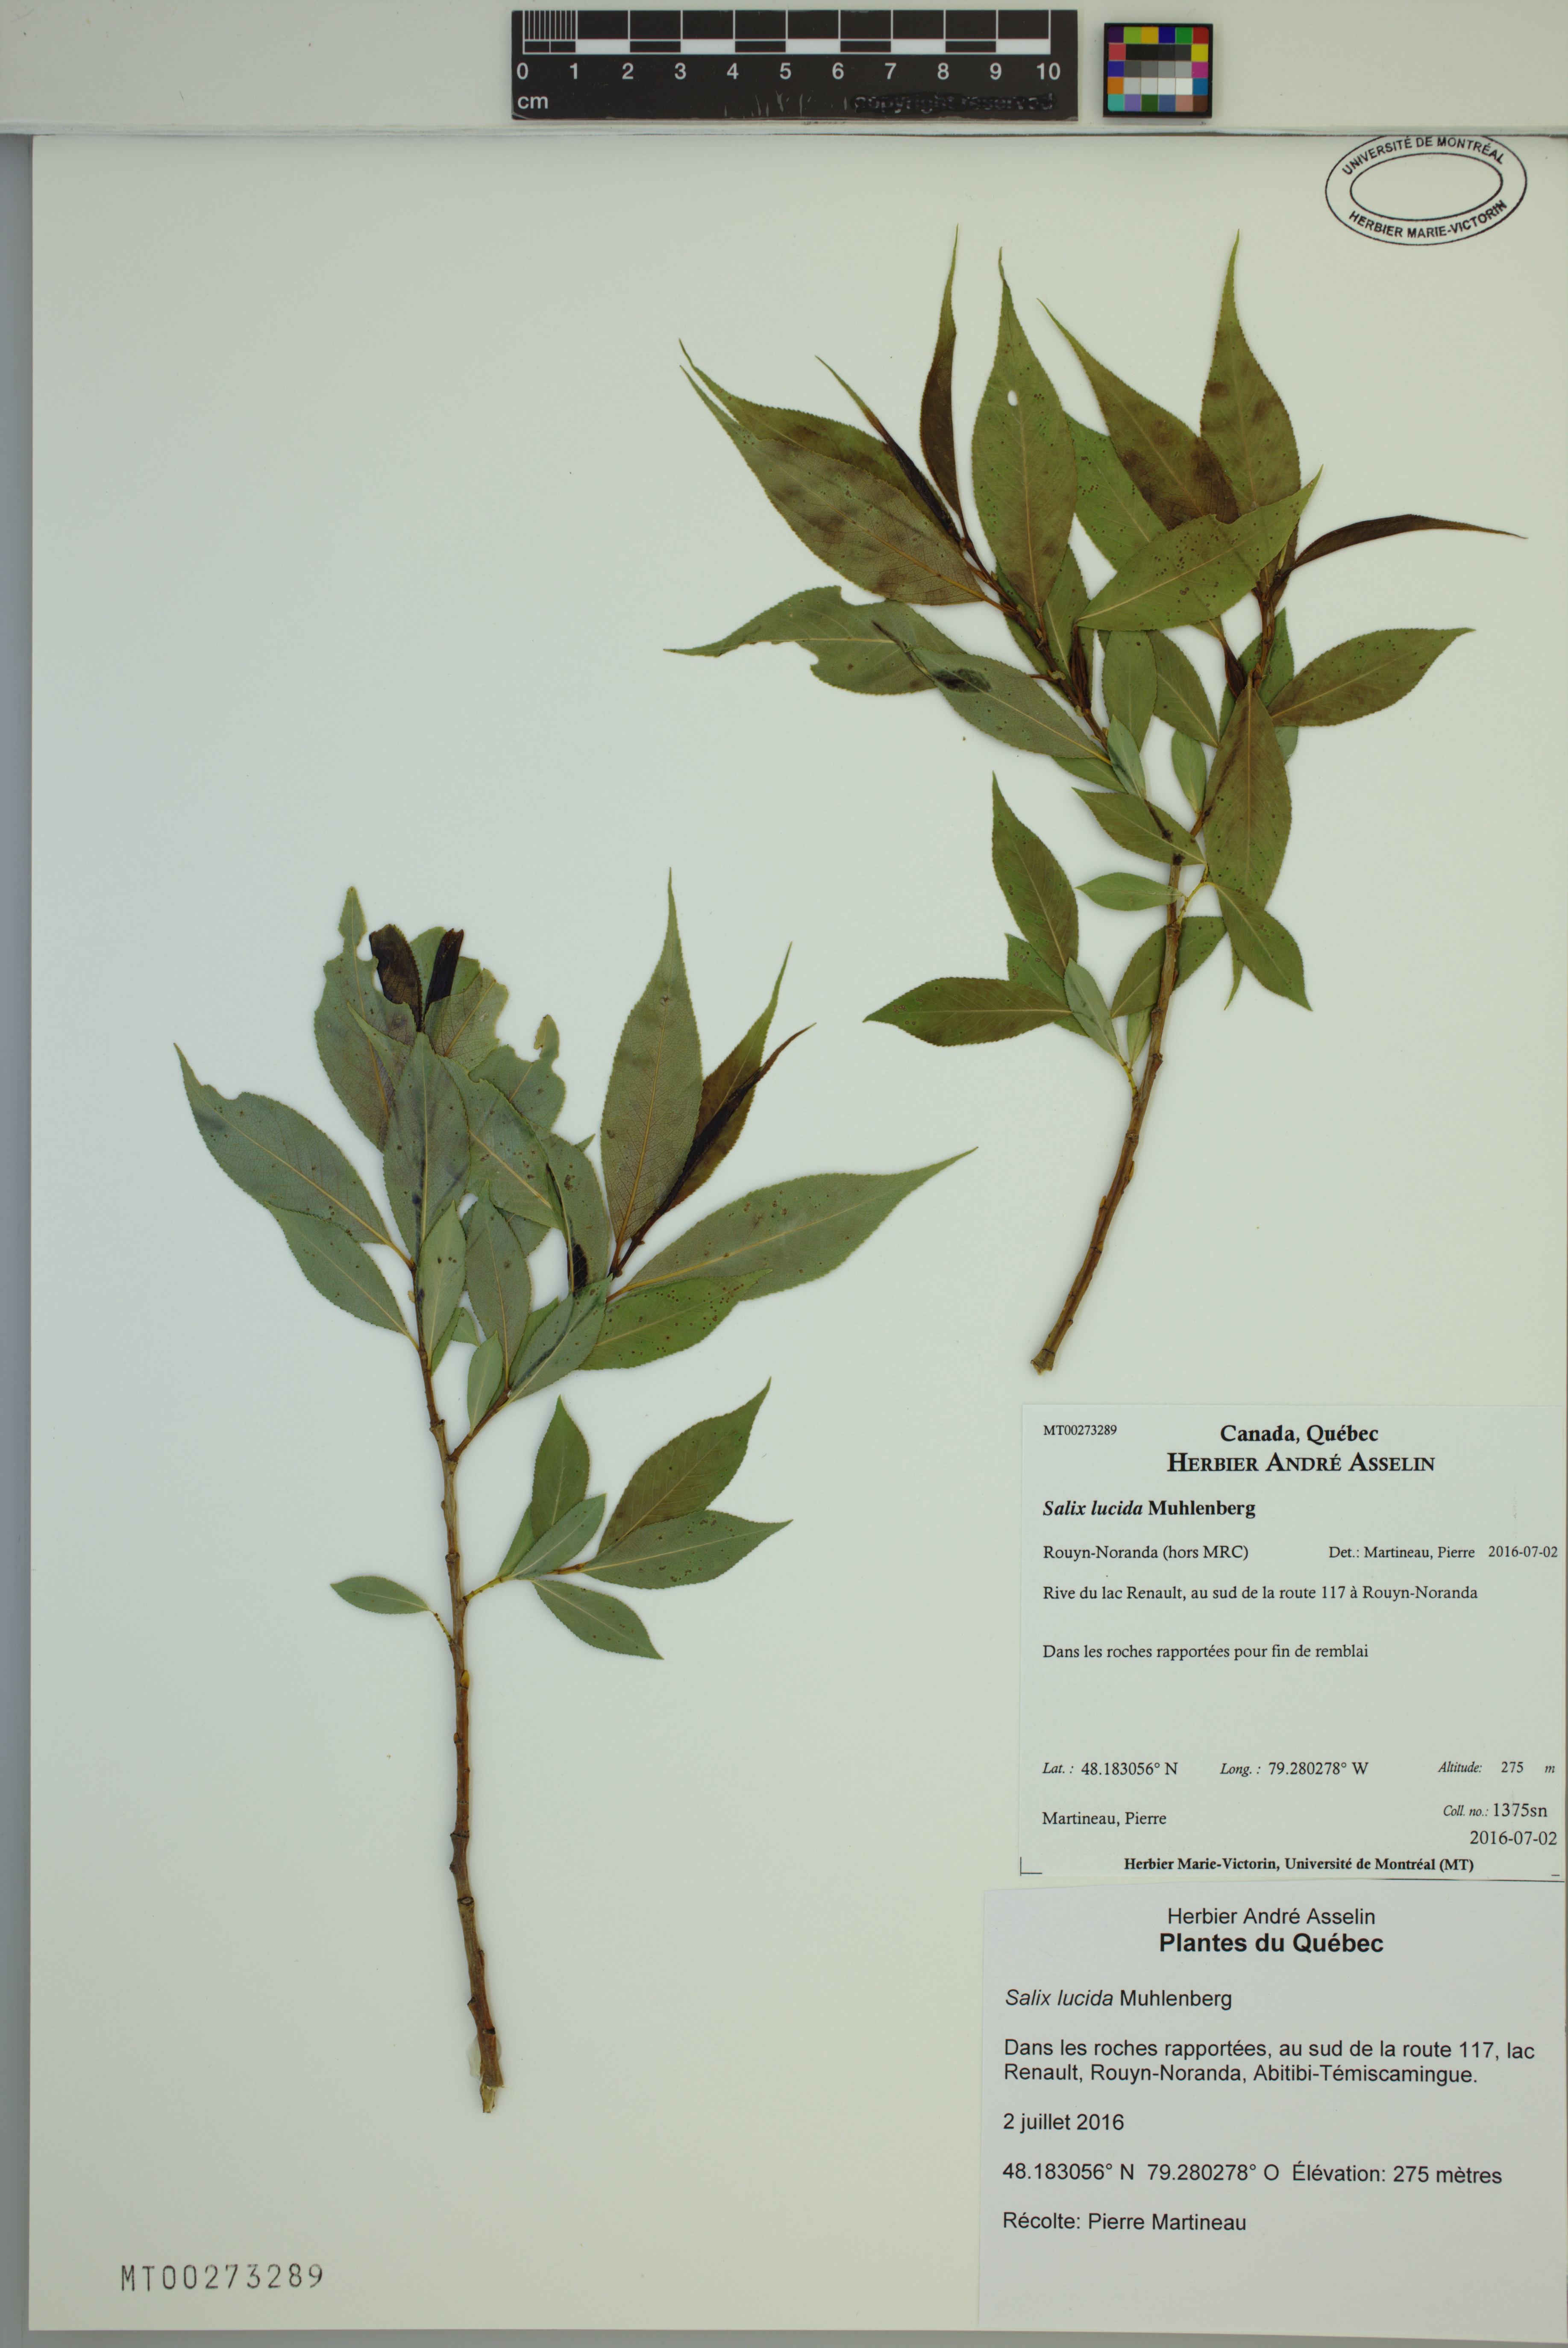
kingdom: Plantae
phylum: Tracheophyta
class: Magnoliopsida
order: Malpighiales
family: Salicaceae
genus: Salix
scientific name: Salix lucida
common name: Shining willow
